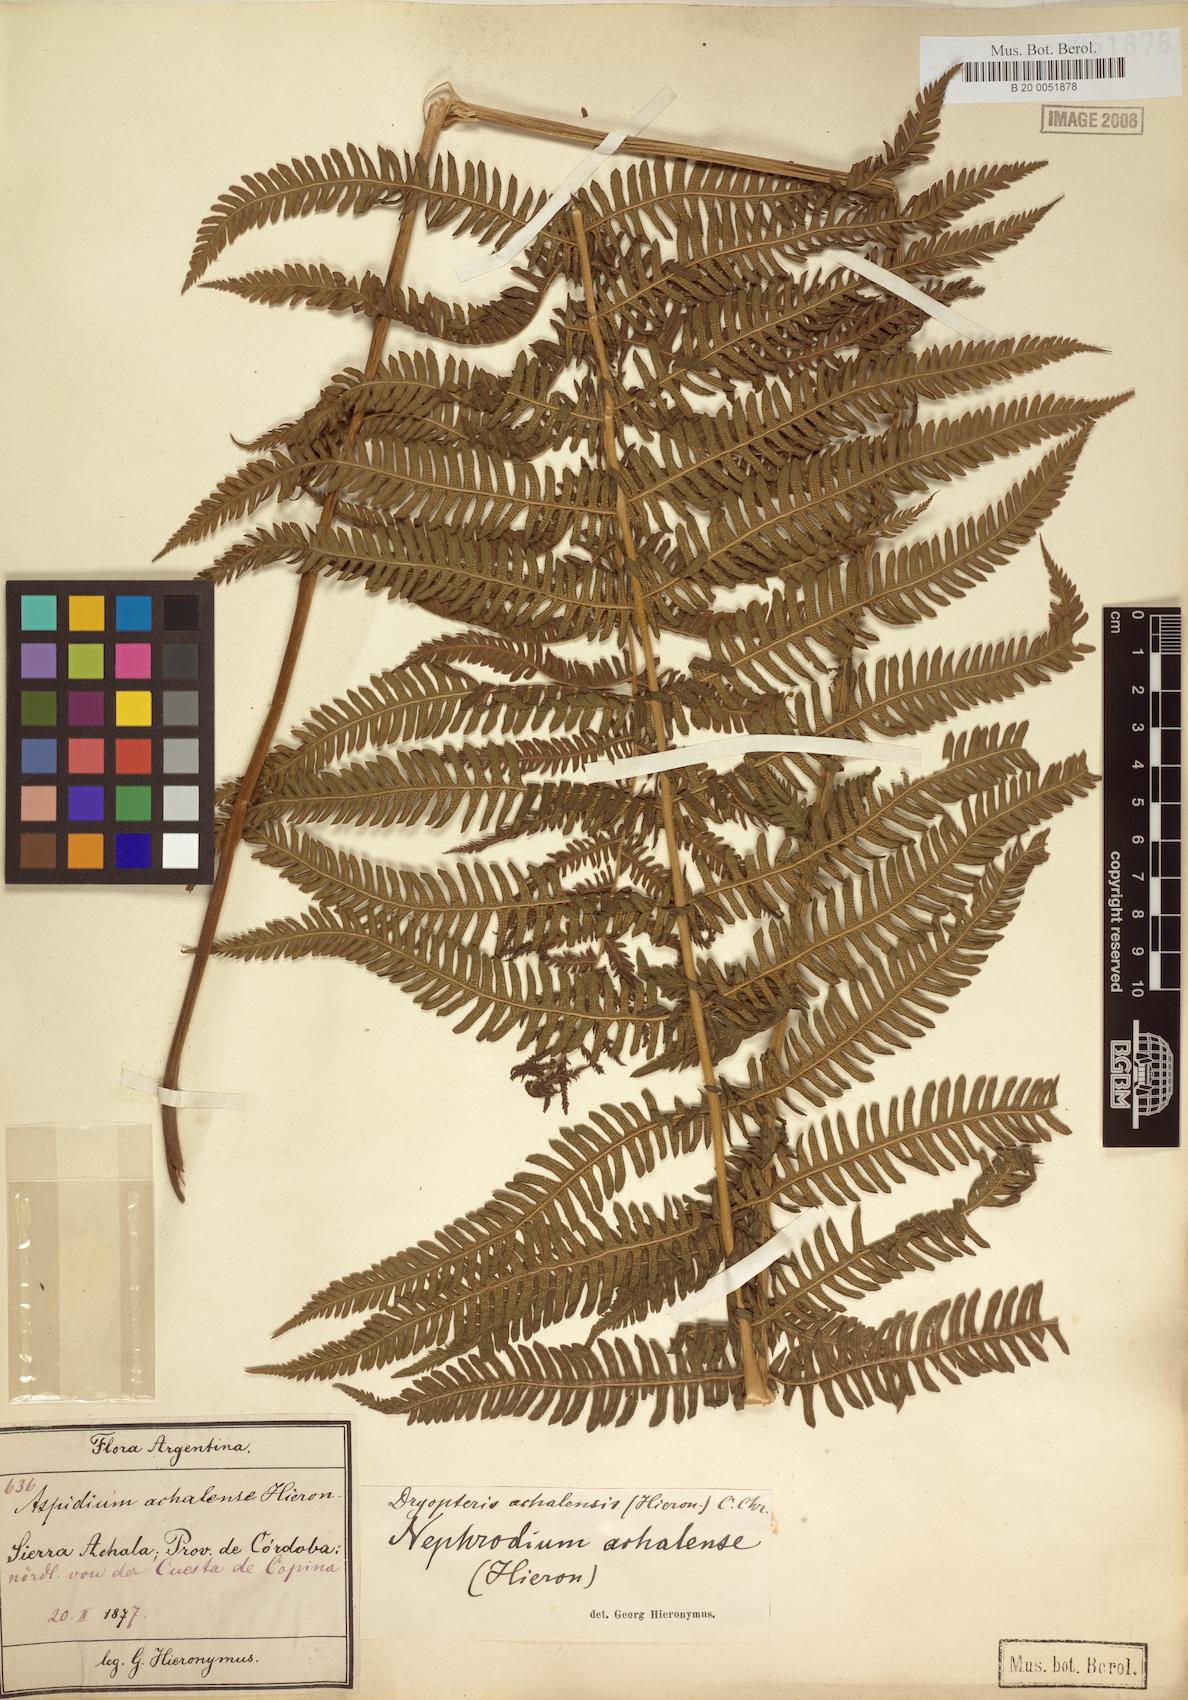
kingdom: Plantae
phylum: Tracheophyta
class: Polypodiopsida
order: Polypodiales
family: Thelypteridaceae
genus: Amauropelta
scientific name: Amauropelta achalensis
